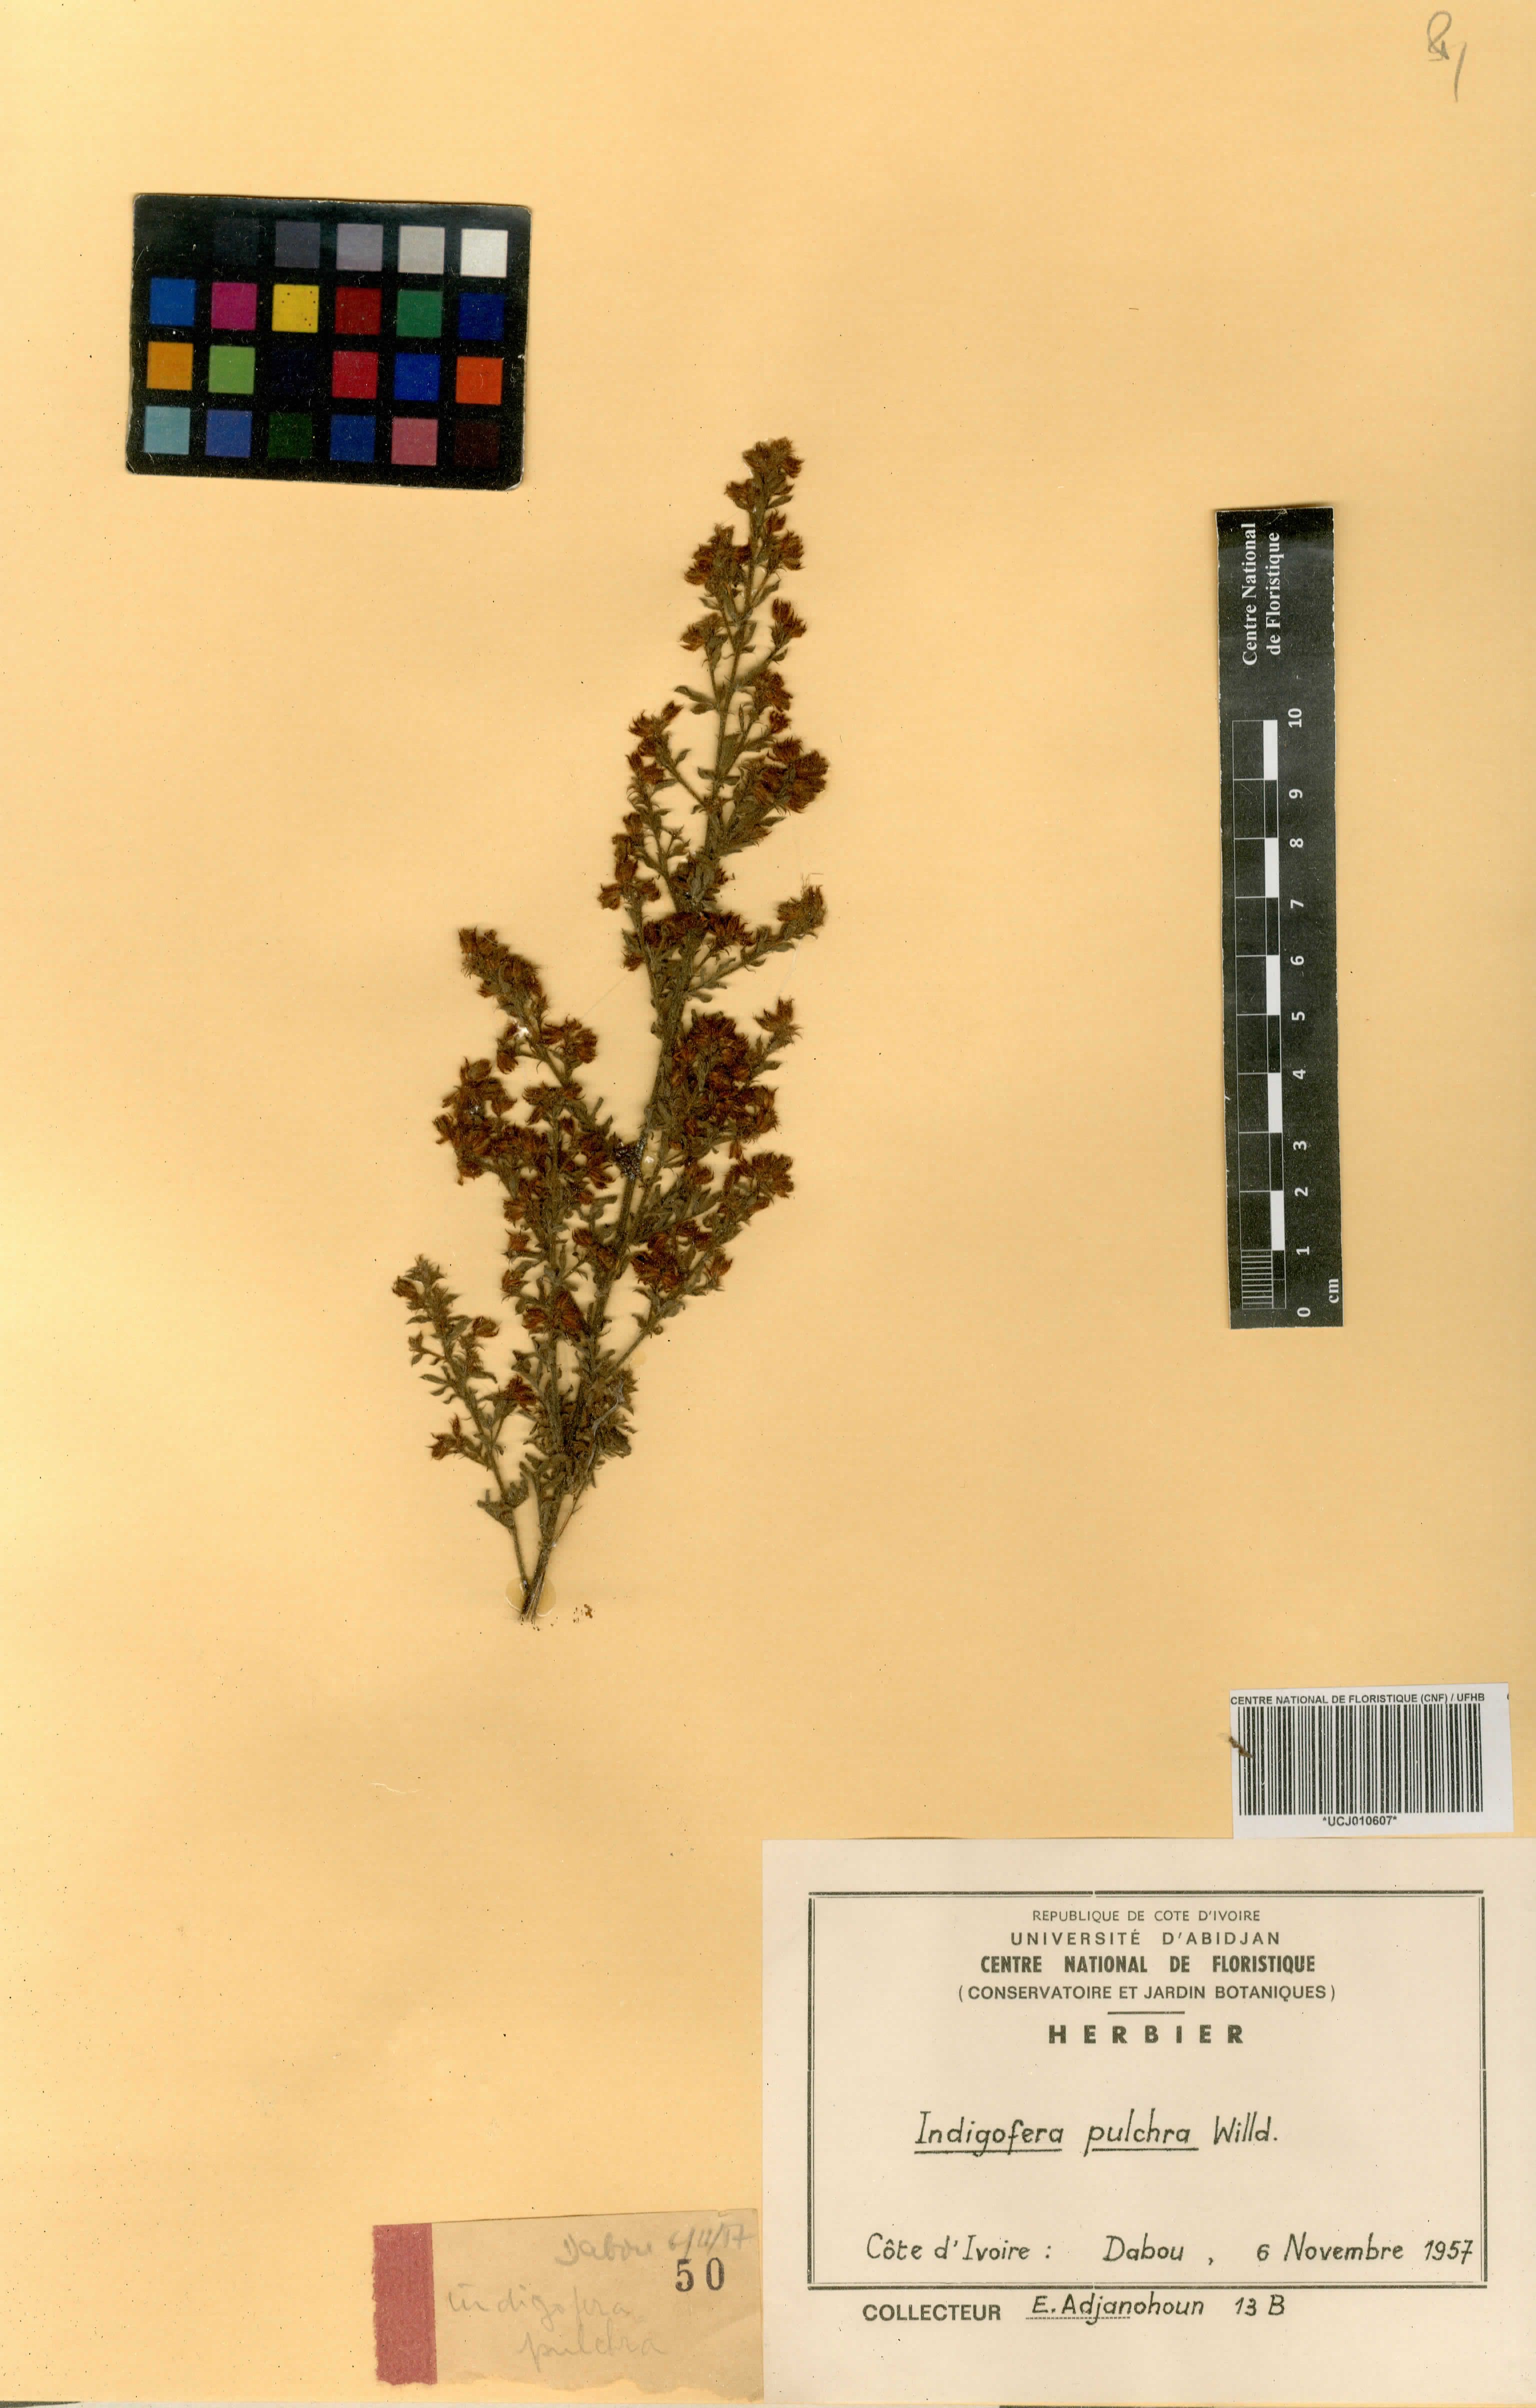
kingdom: Plantae
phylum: Tracheophyta
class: Magnoliopsida
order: Fabales
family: Fabaceae
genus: Indigofera
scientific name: Indigofera pulchra
